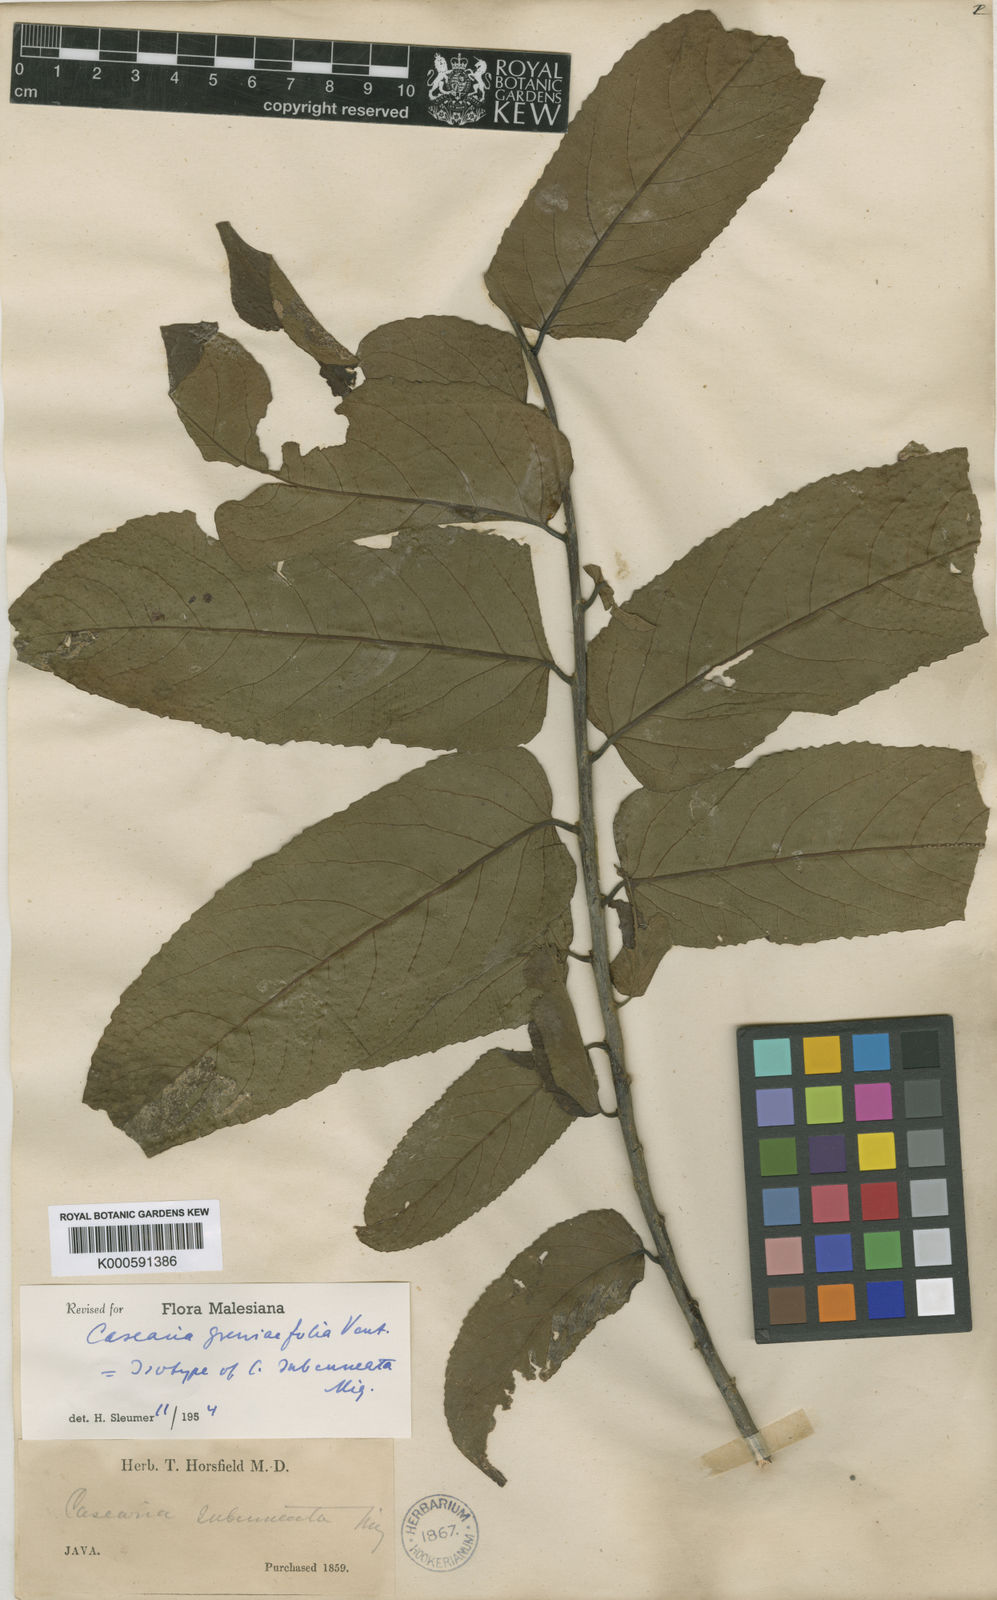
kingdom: Plantae
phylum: Tracheophyta
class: Magnoliopsida
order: Malpighiales
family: Salicaceae
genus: Casearia
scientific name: Casearia grewiifolia
